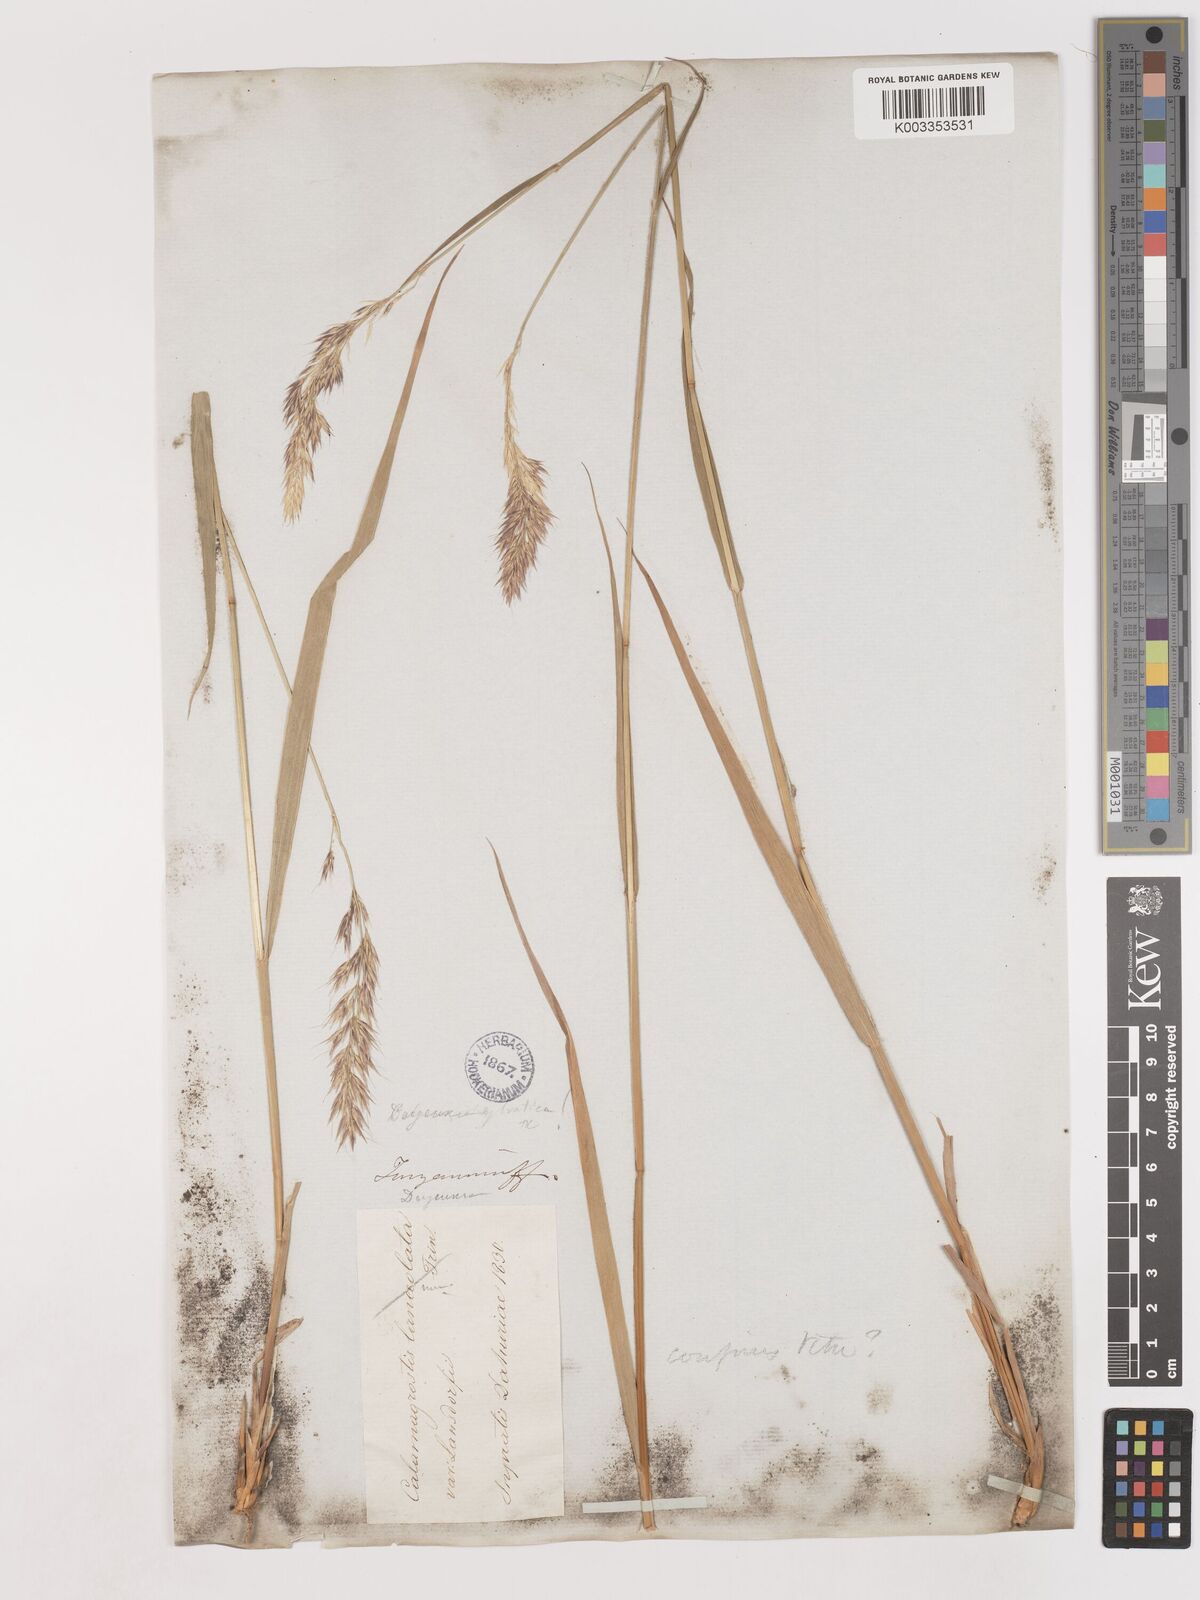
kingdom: Plantae
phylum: Tracheophyta
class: Liliopsida
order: Poales
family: Poaceae
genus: Calamagrostis
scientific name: Calamagrostis
